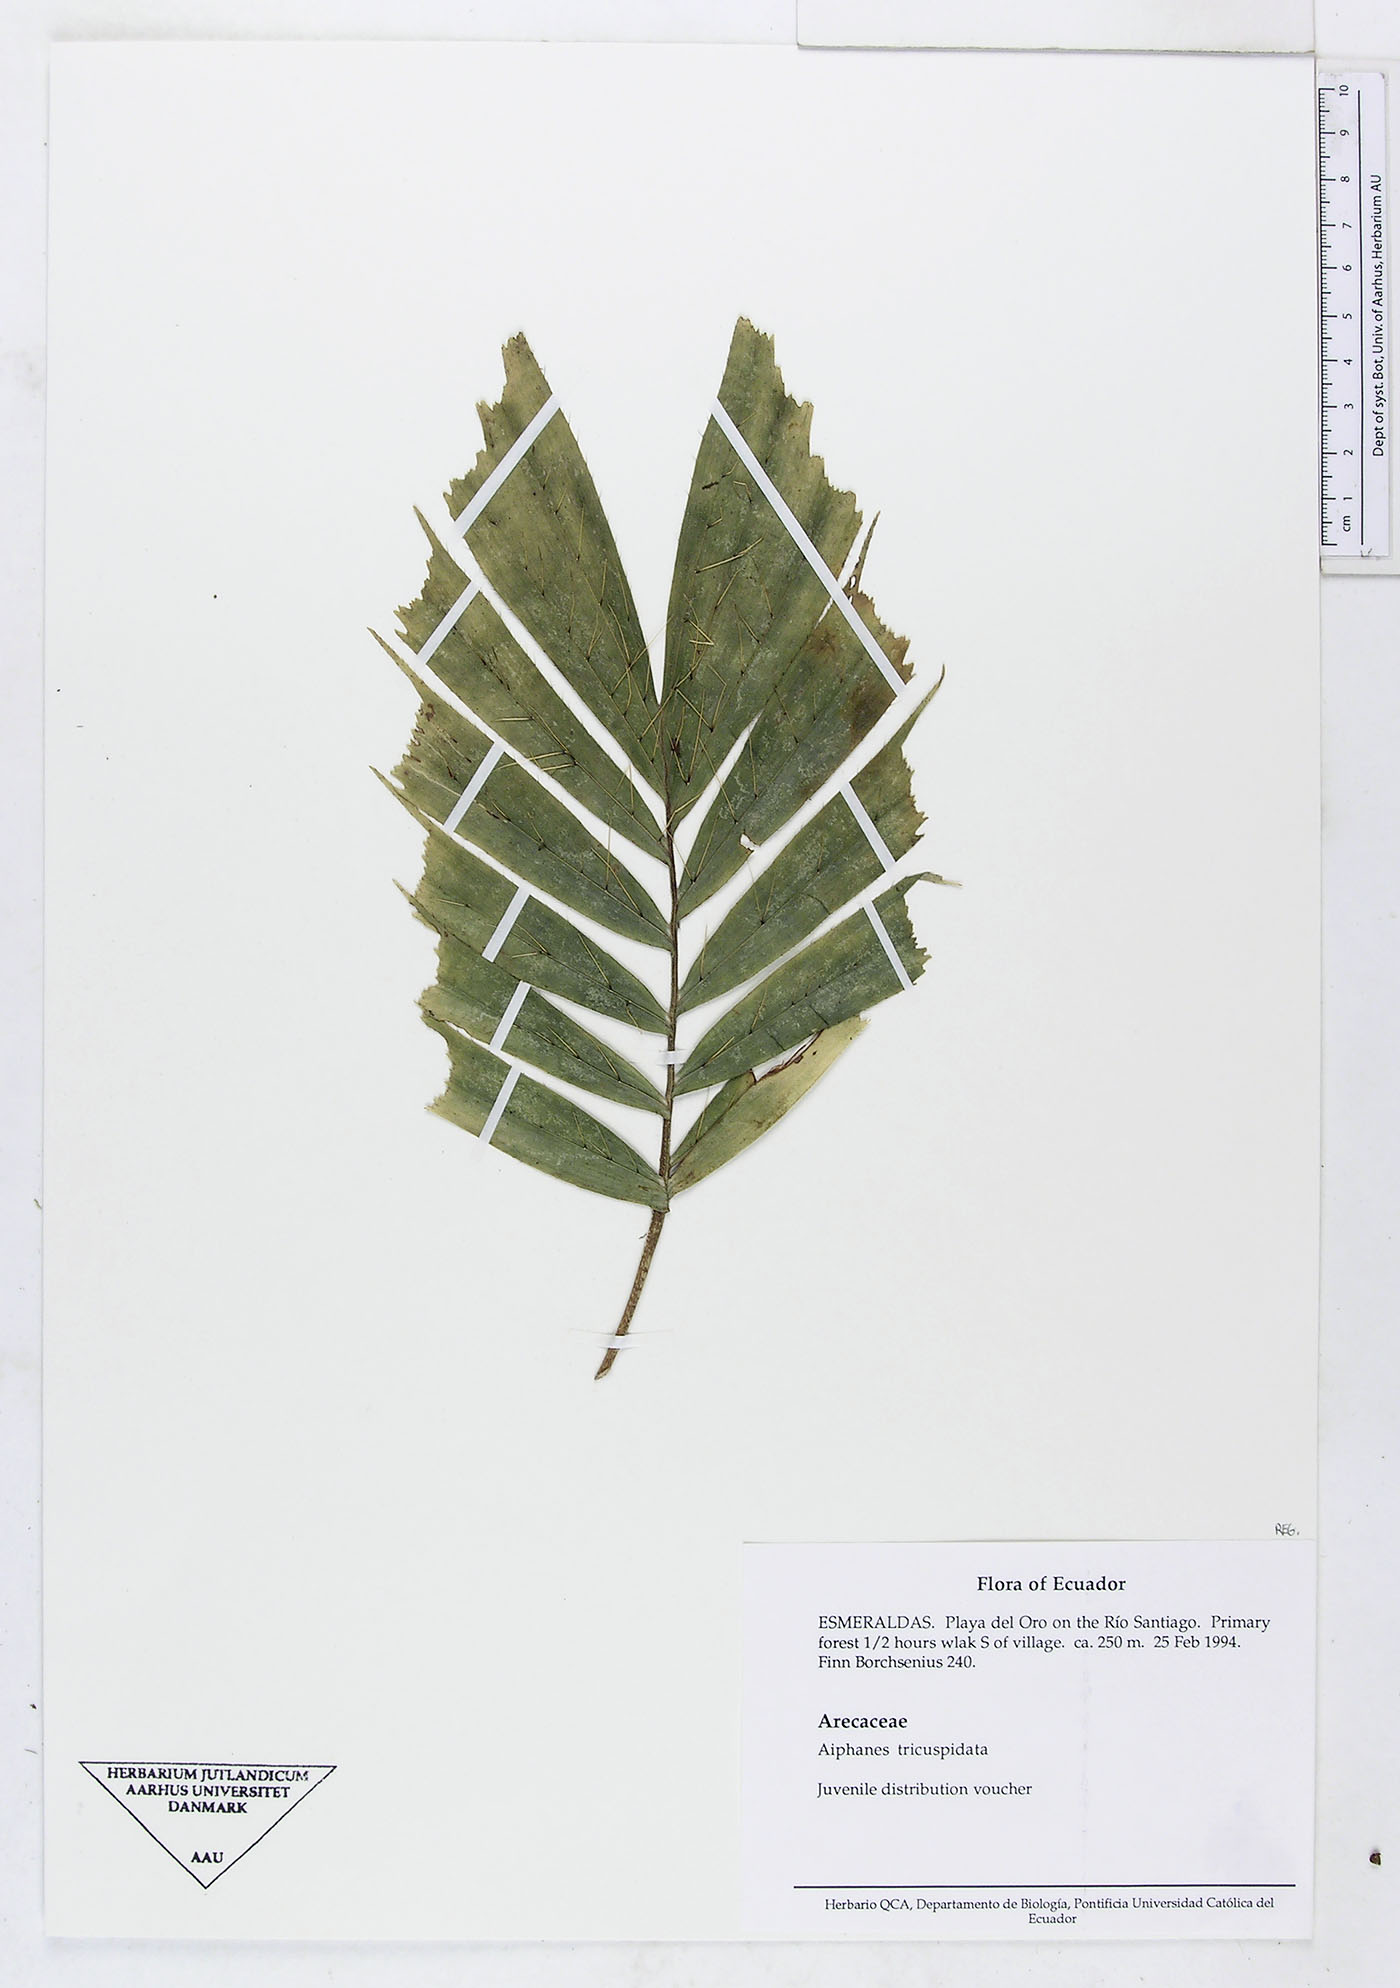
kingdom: Plantae
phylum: Tracheophyta
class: Liliopsida
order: Arecales
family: Arecaceae
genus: Aiphanes
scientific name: Aiphanes tricuspidata
